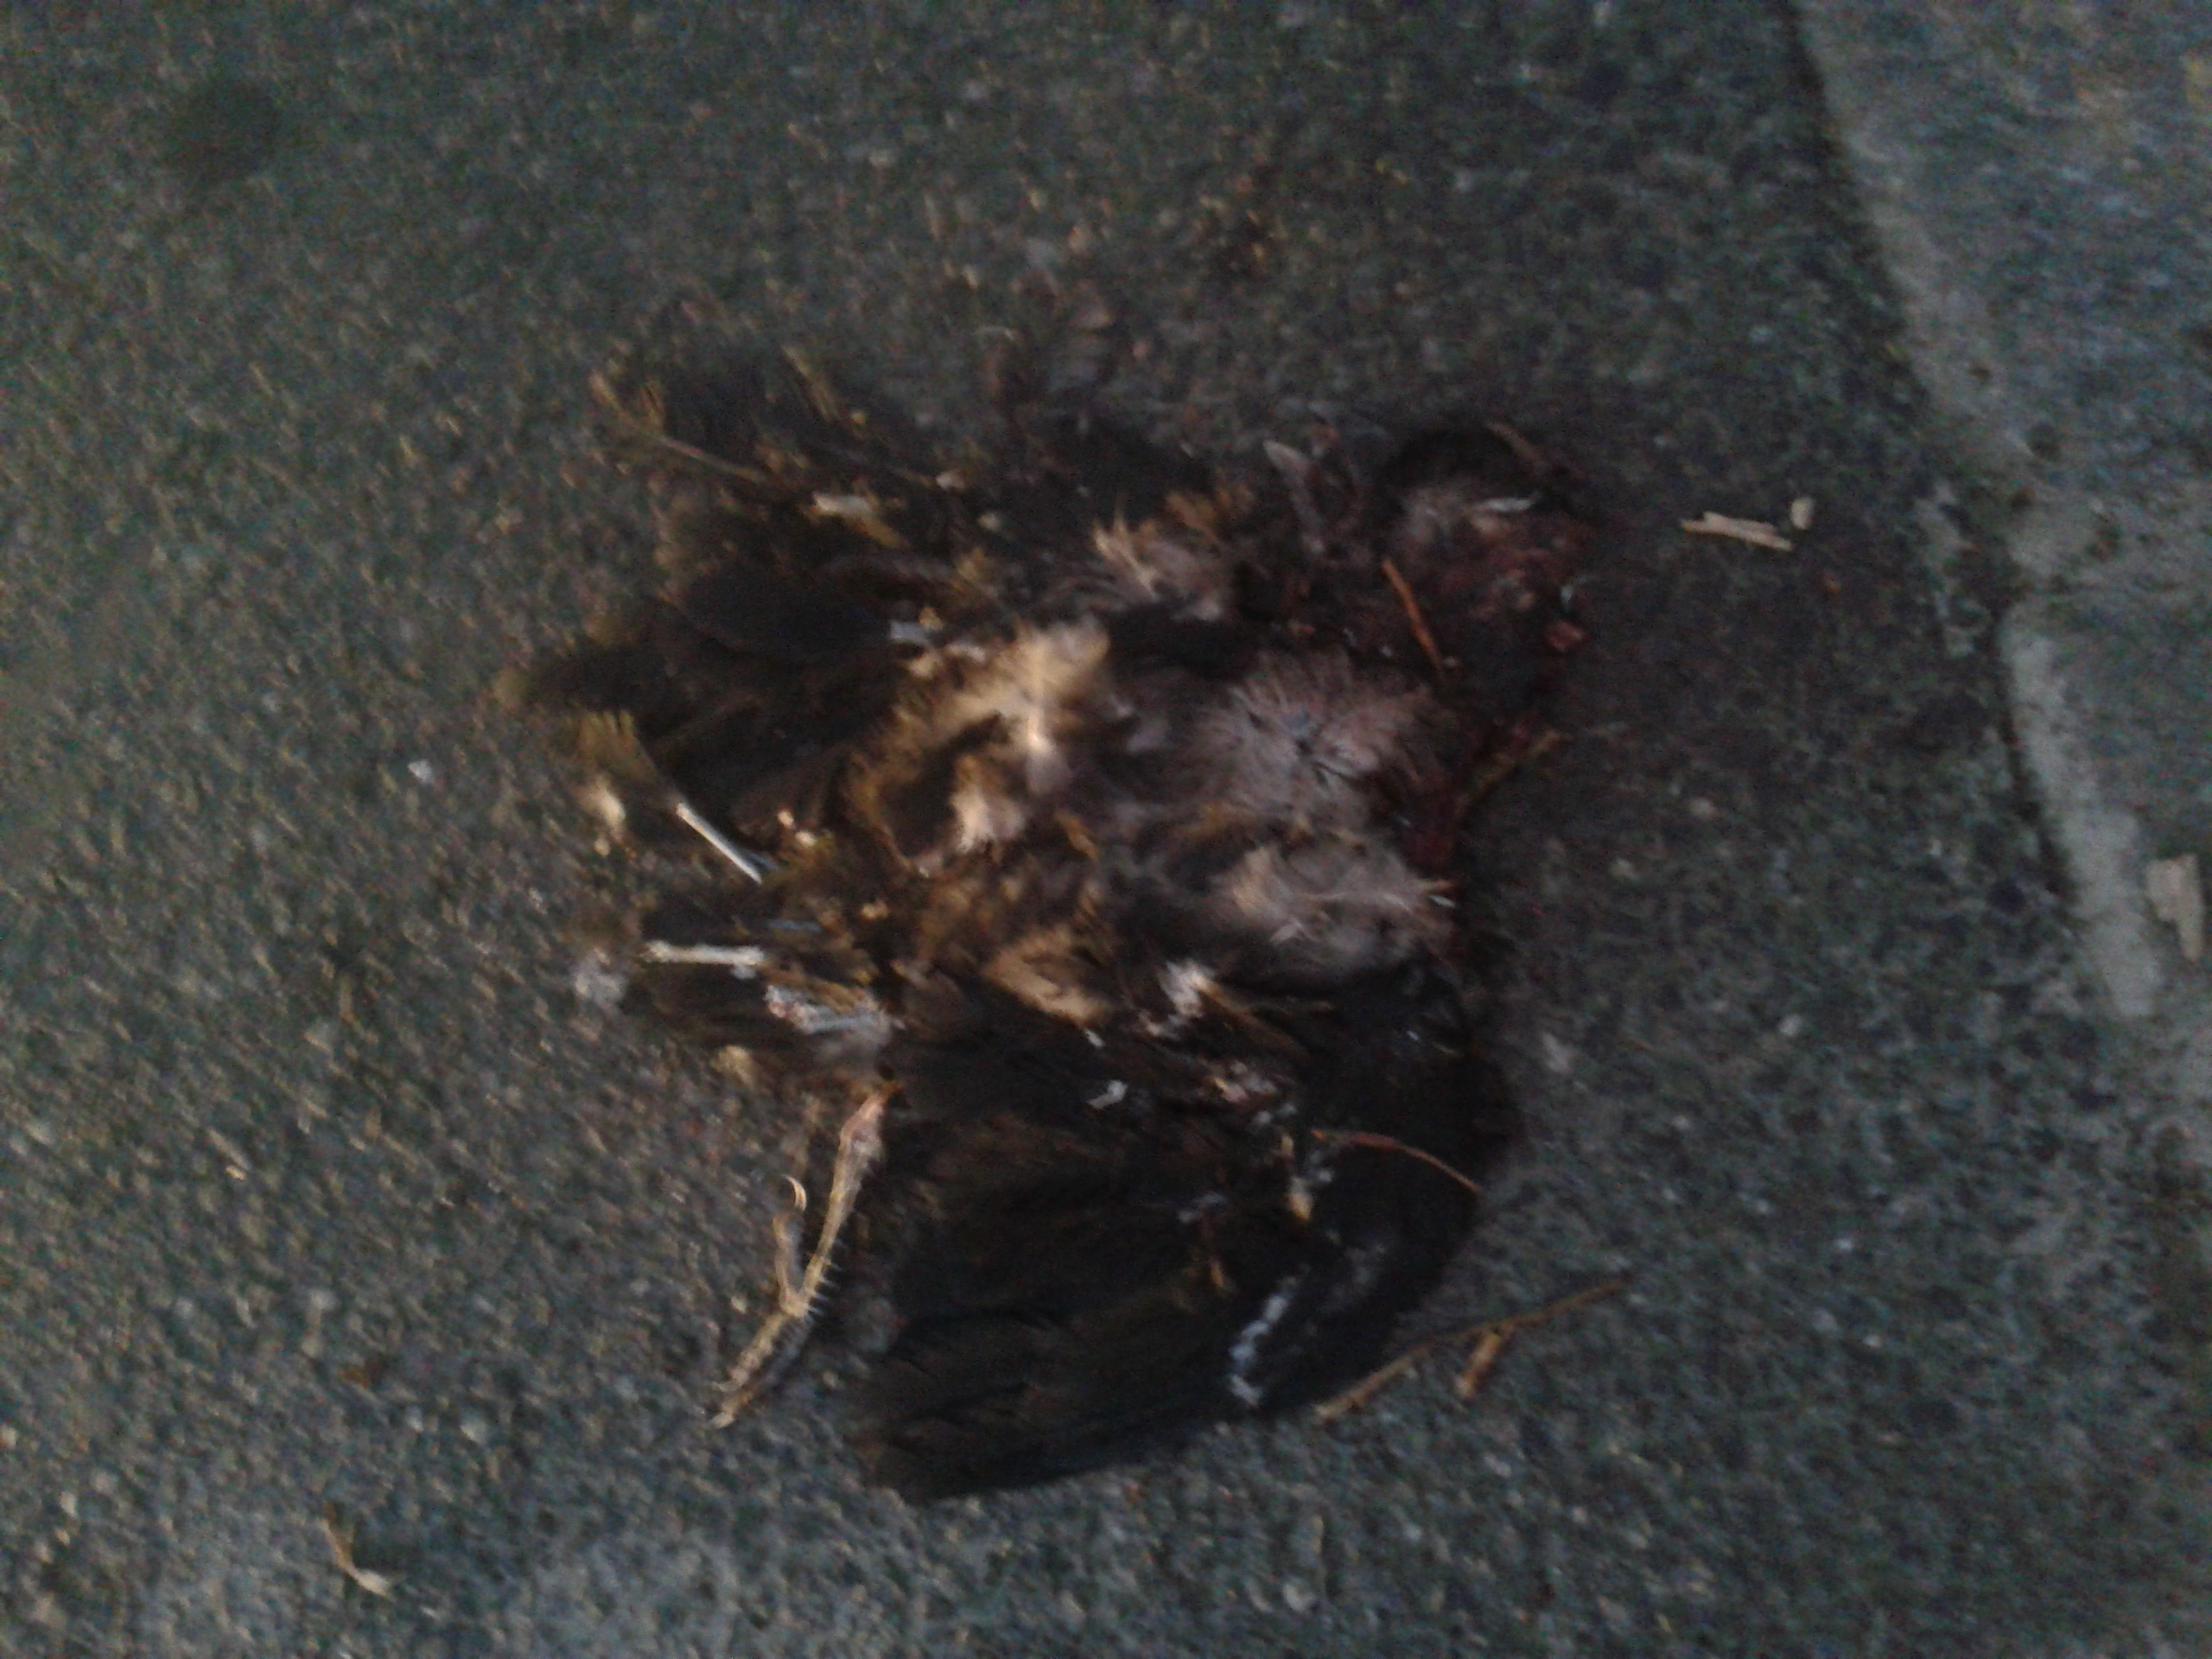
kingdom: Animalia
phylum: Chordata
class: Aves
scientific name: Aves
